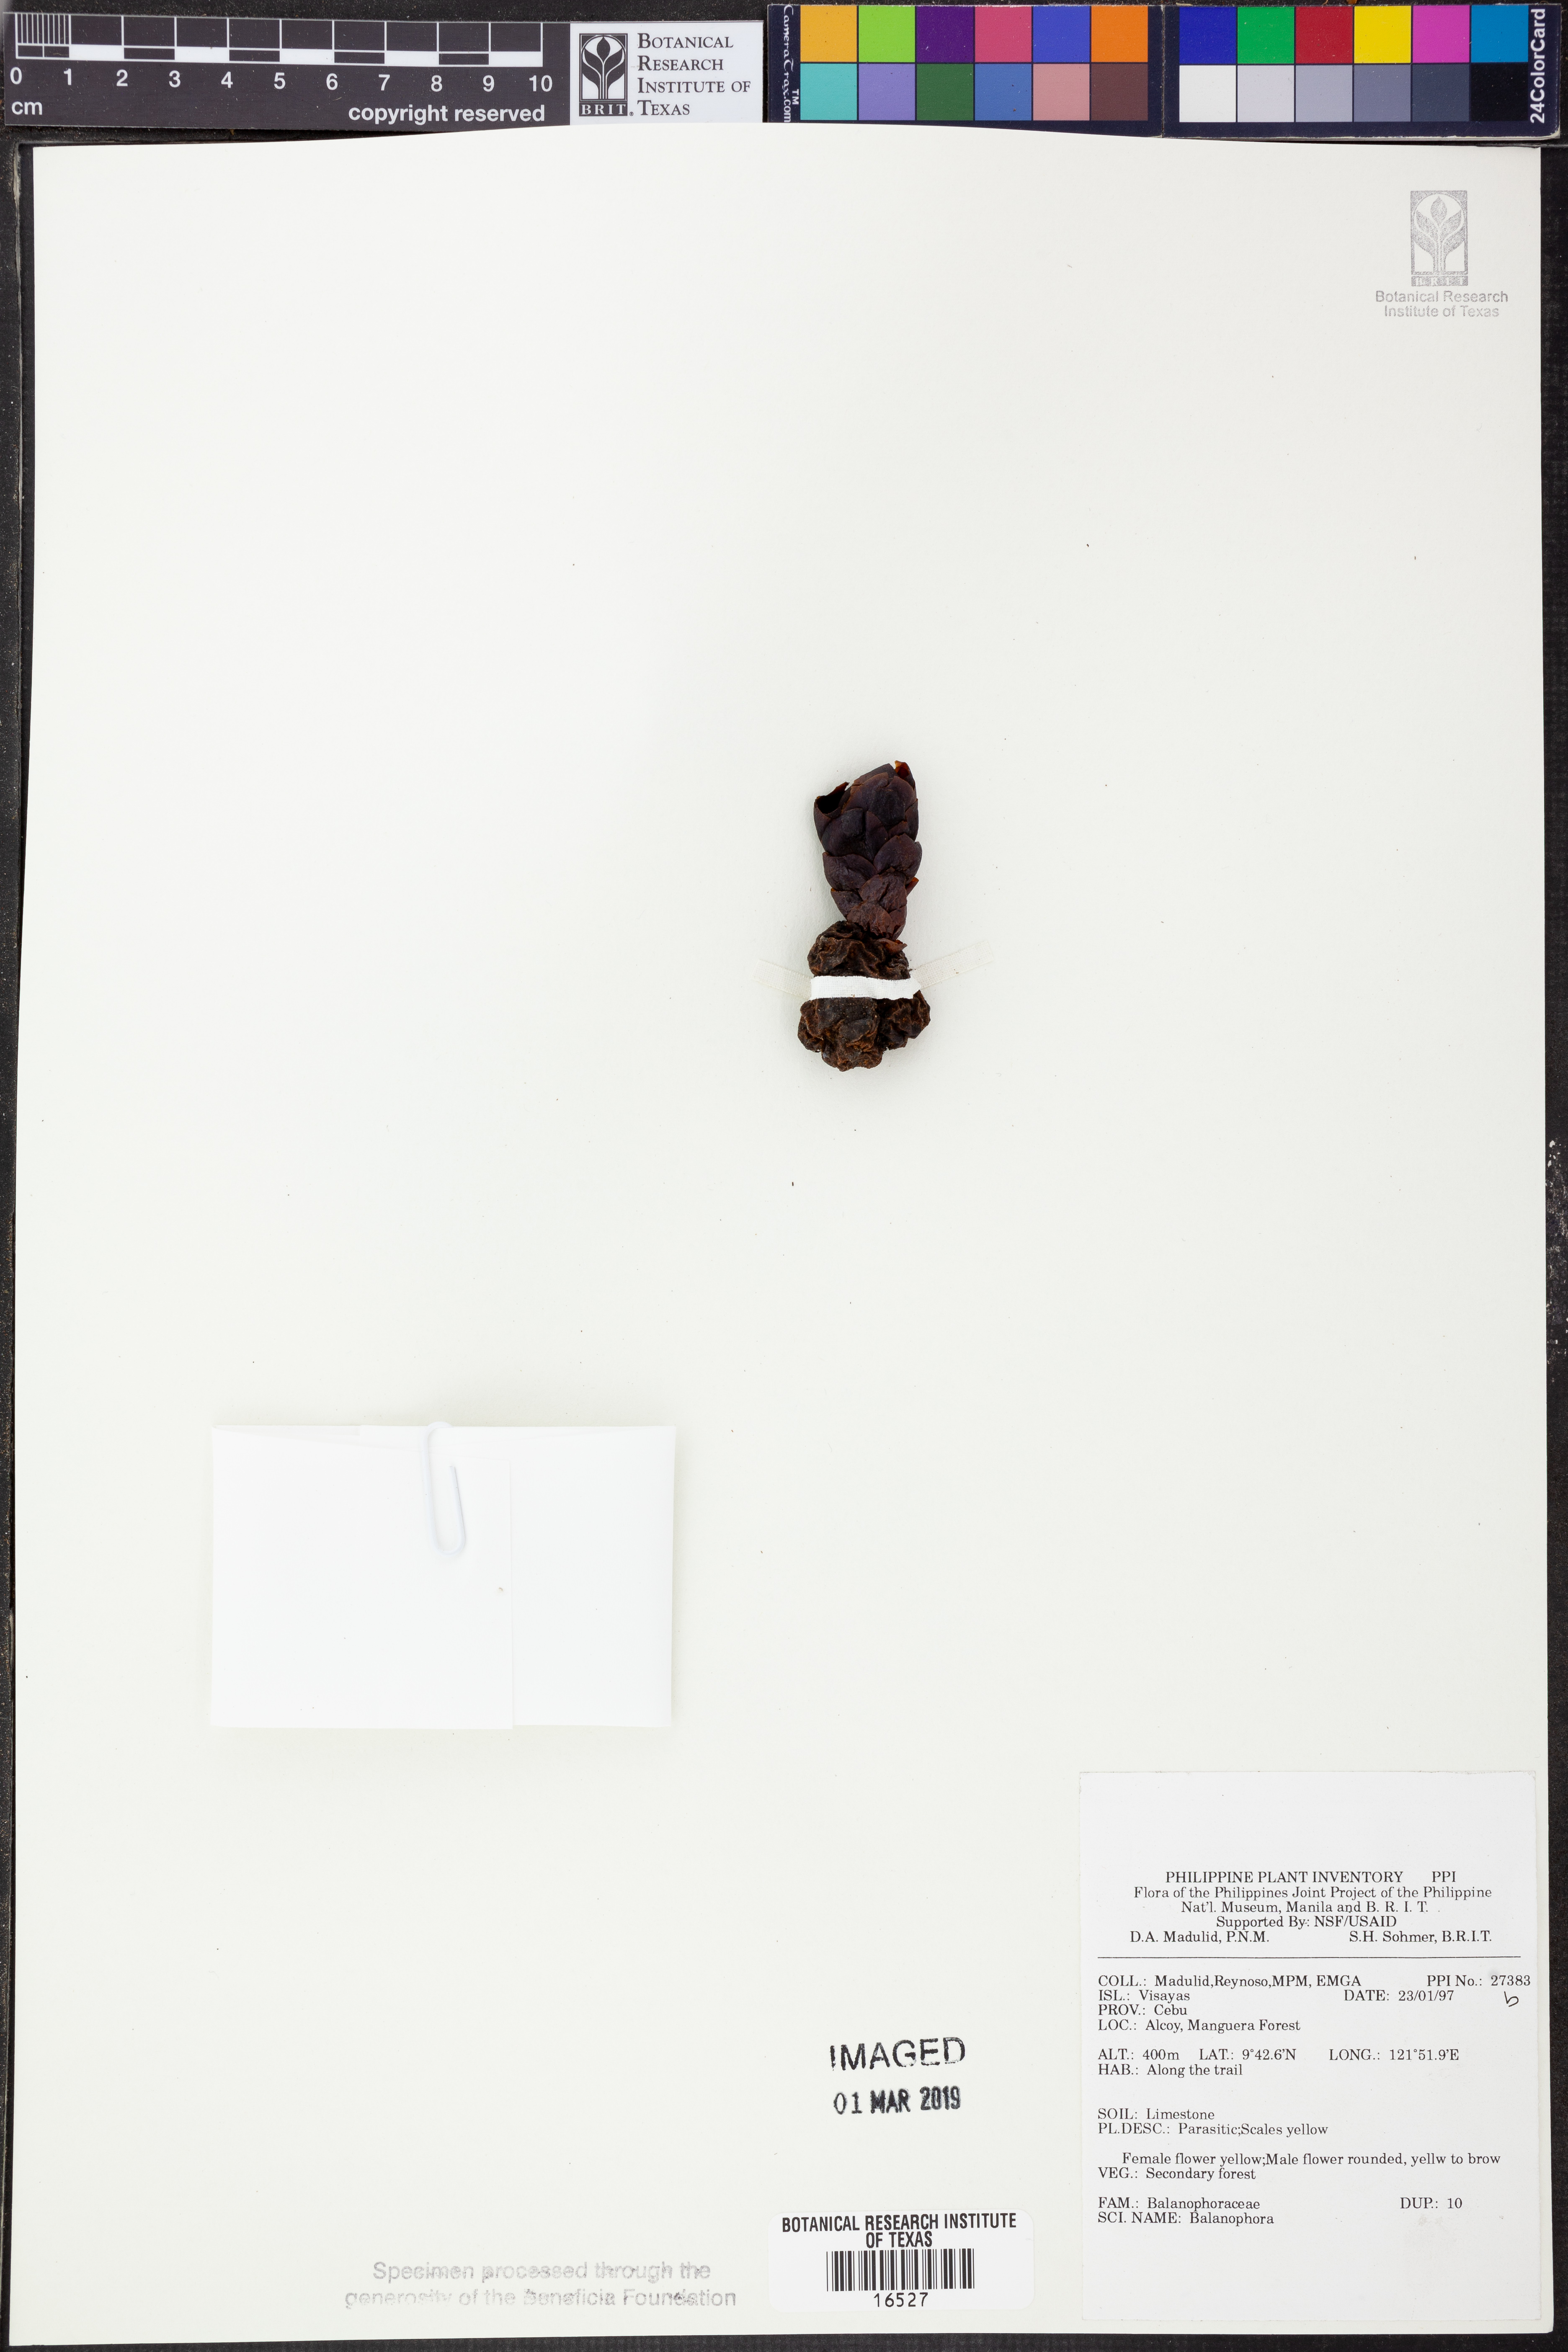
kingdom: Plantae
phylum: Tracheophyta
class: Magnoliopsida
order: Santalales
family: Balanophoraceae
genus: Balanophora
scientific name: Balanophora
